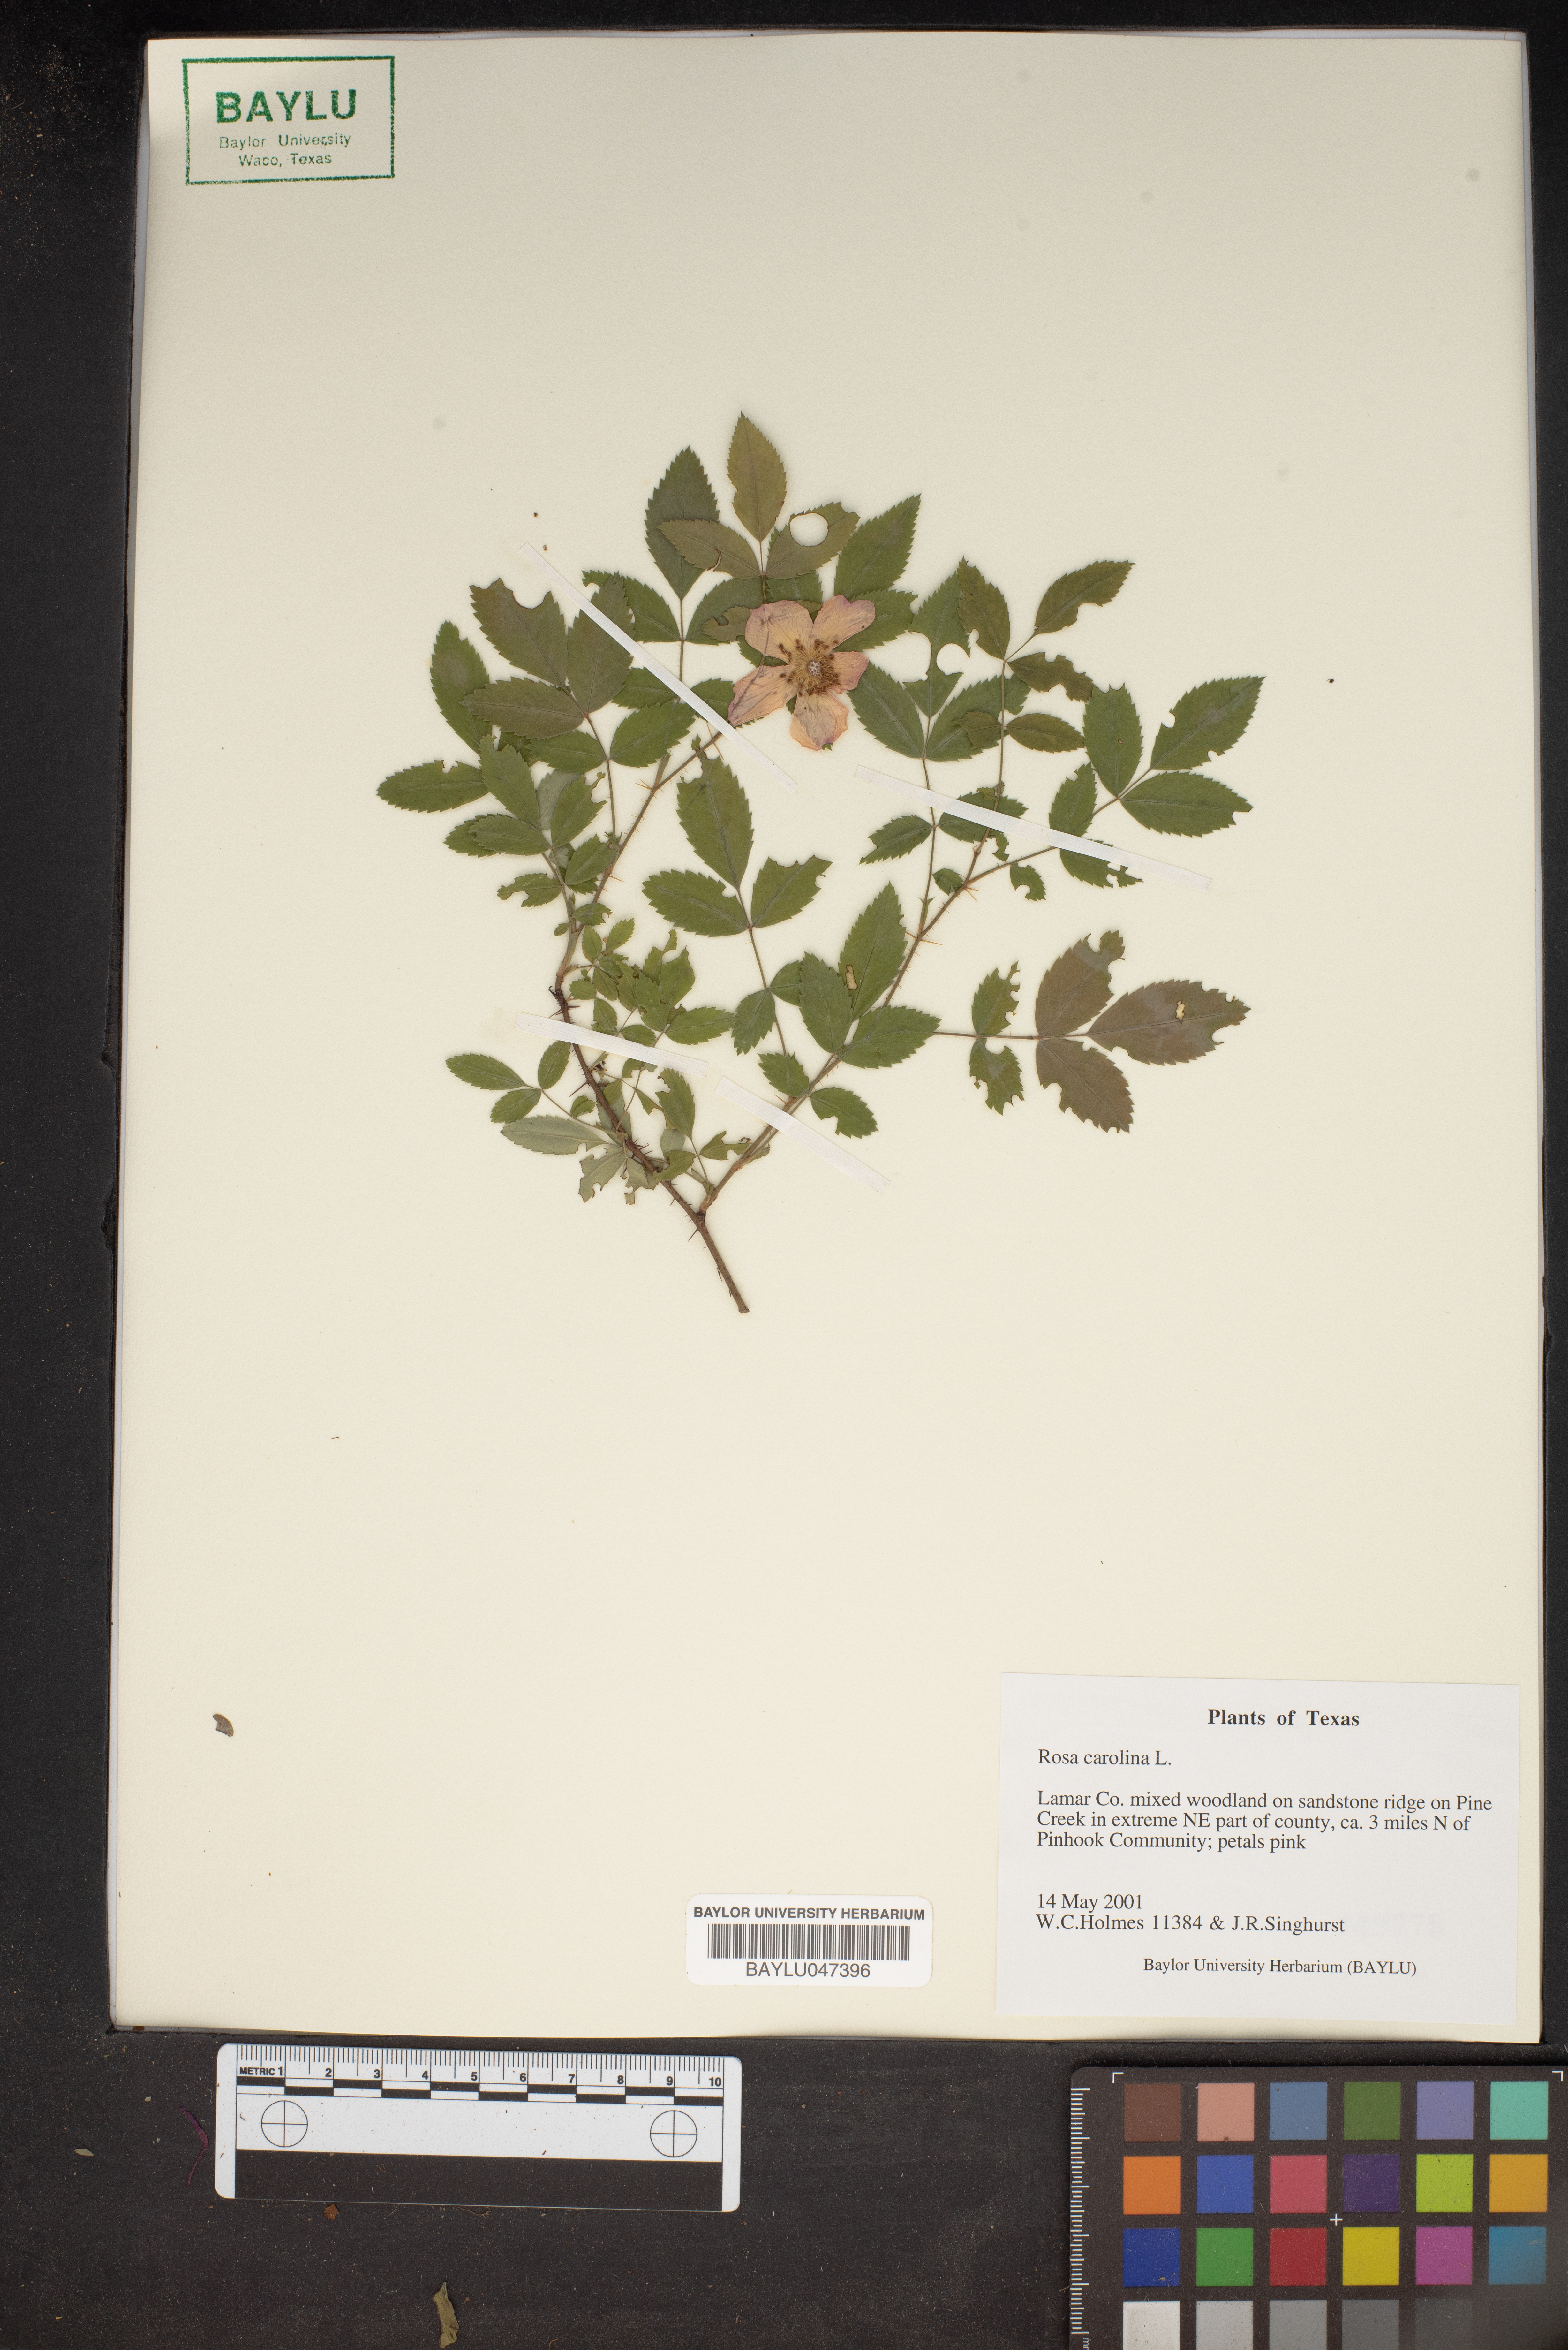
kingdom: Plantae
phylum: Tracheophyta
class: Magnoliopsida
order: Rosales
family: Rosaceae
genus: Rosa
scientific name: Rosa carolina
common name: Pasture rose
